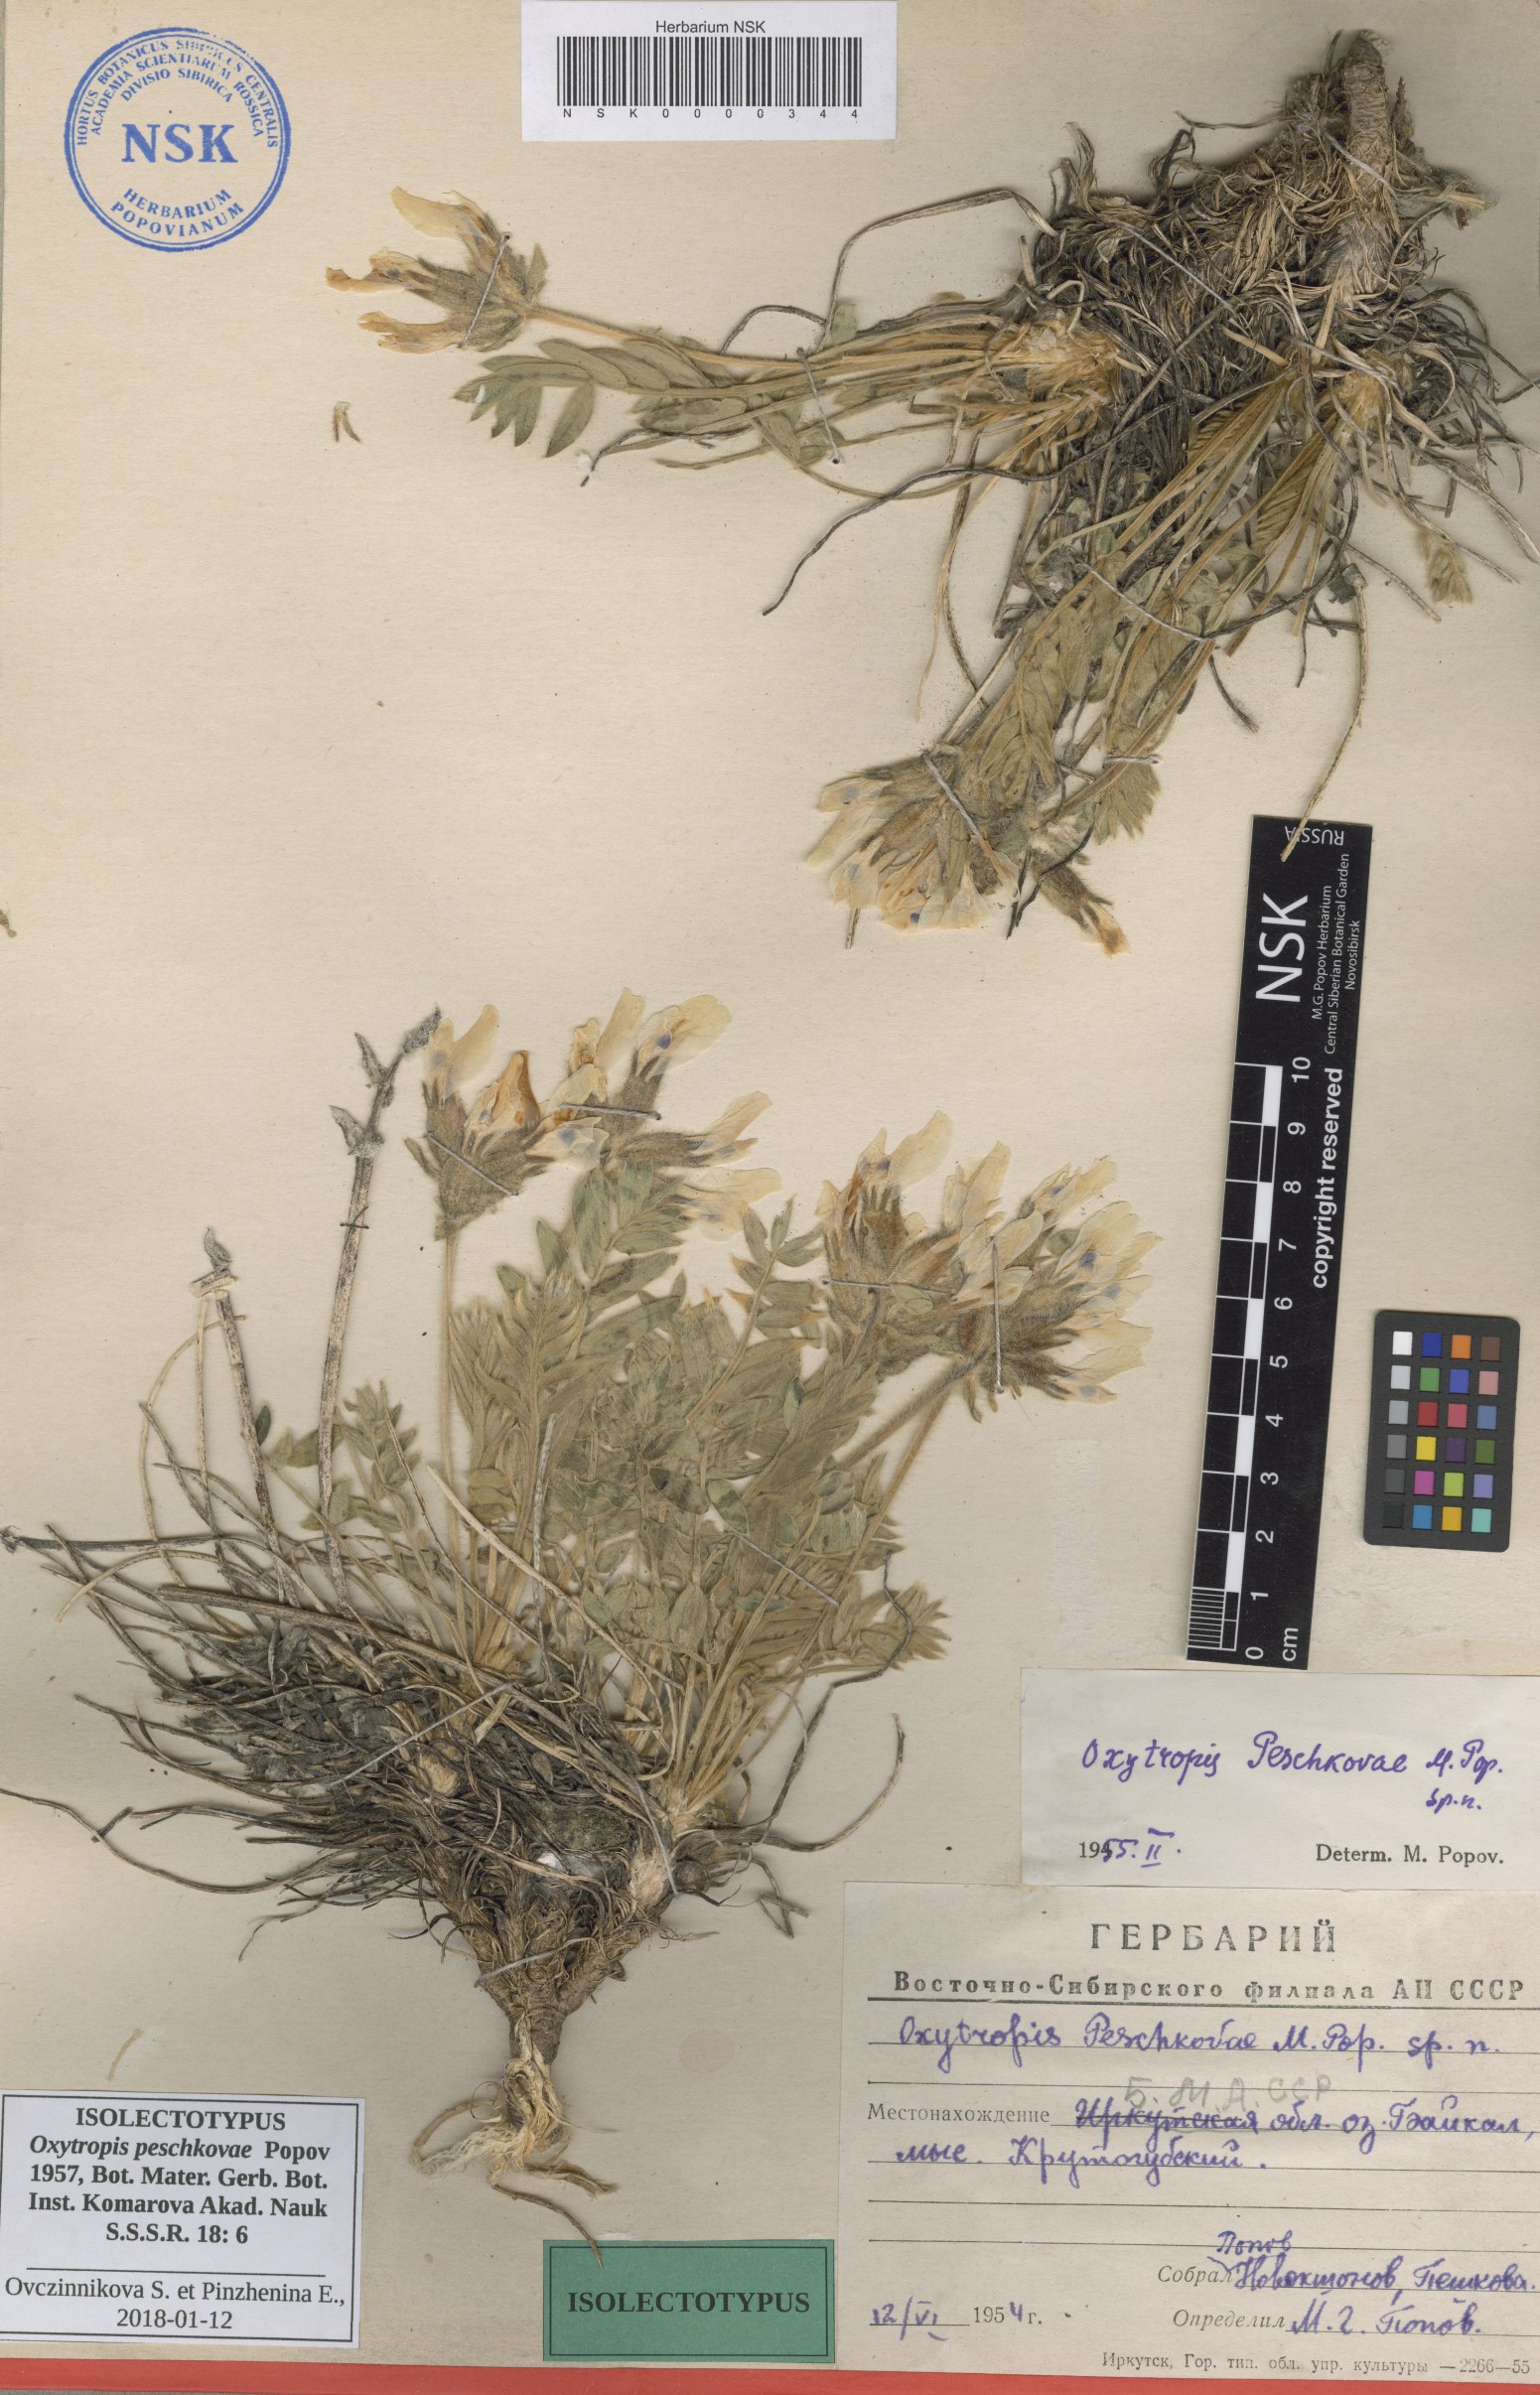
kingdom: Plantae
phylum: Tracheophyta
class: Magnoliopsida
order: Fabales
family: Fabaceae
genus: Oxytropis
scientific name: Oxytropis peschkovae
